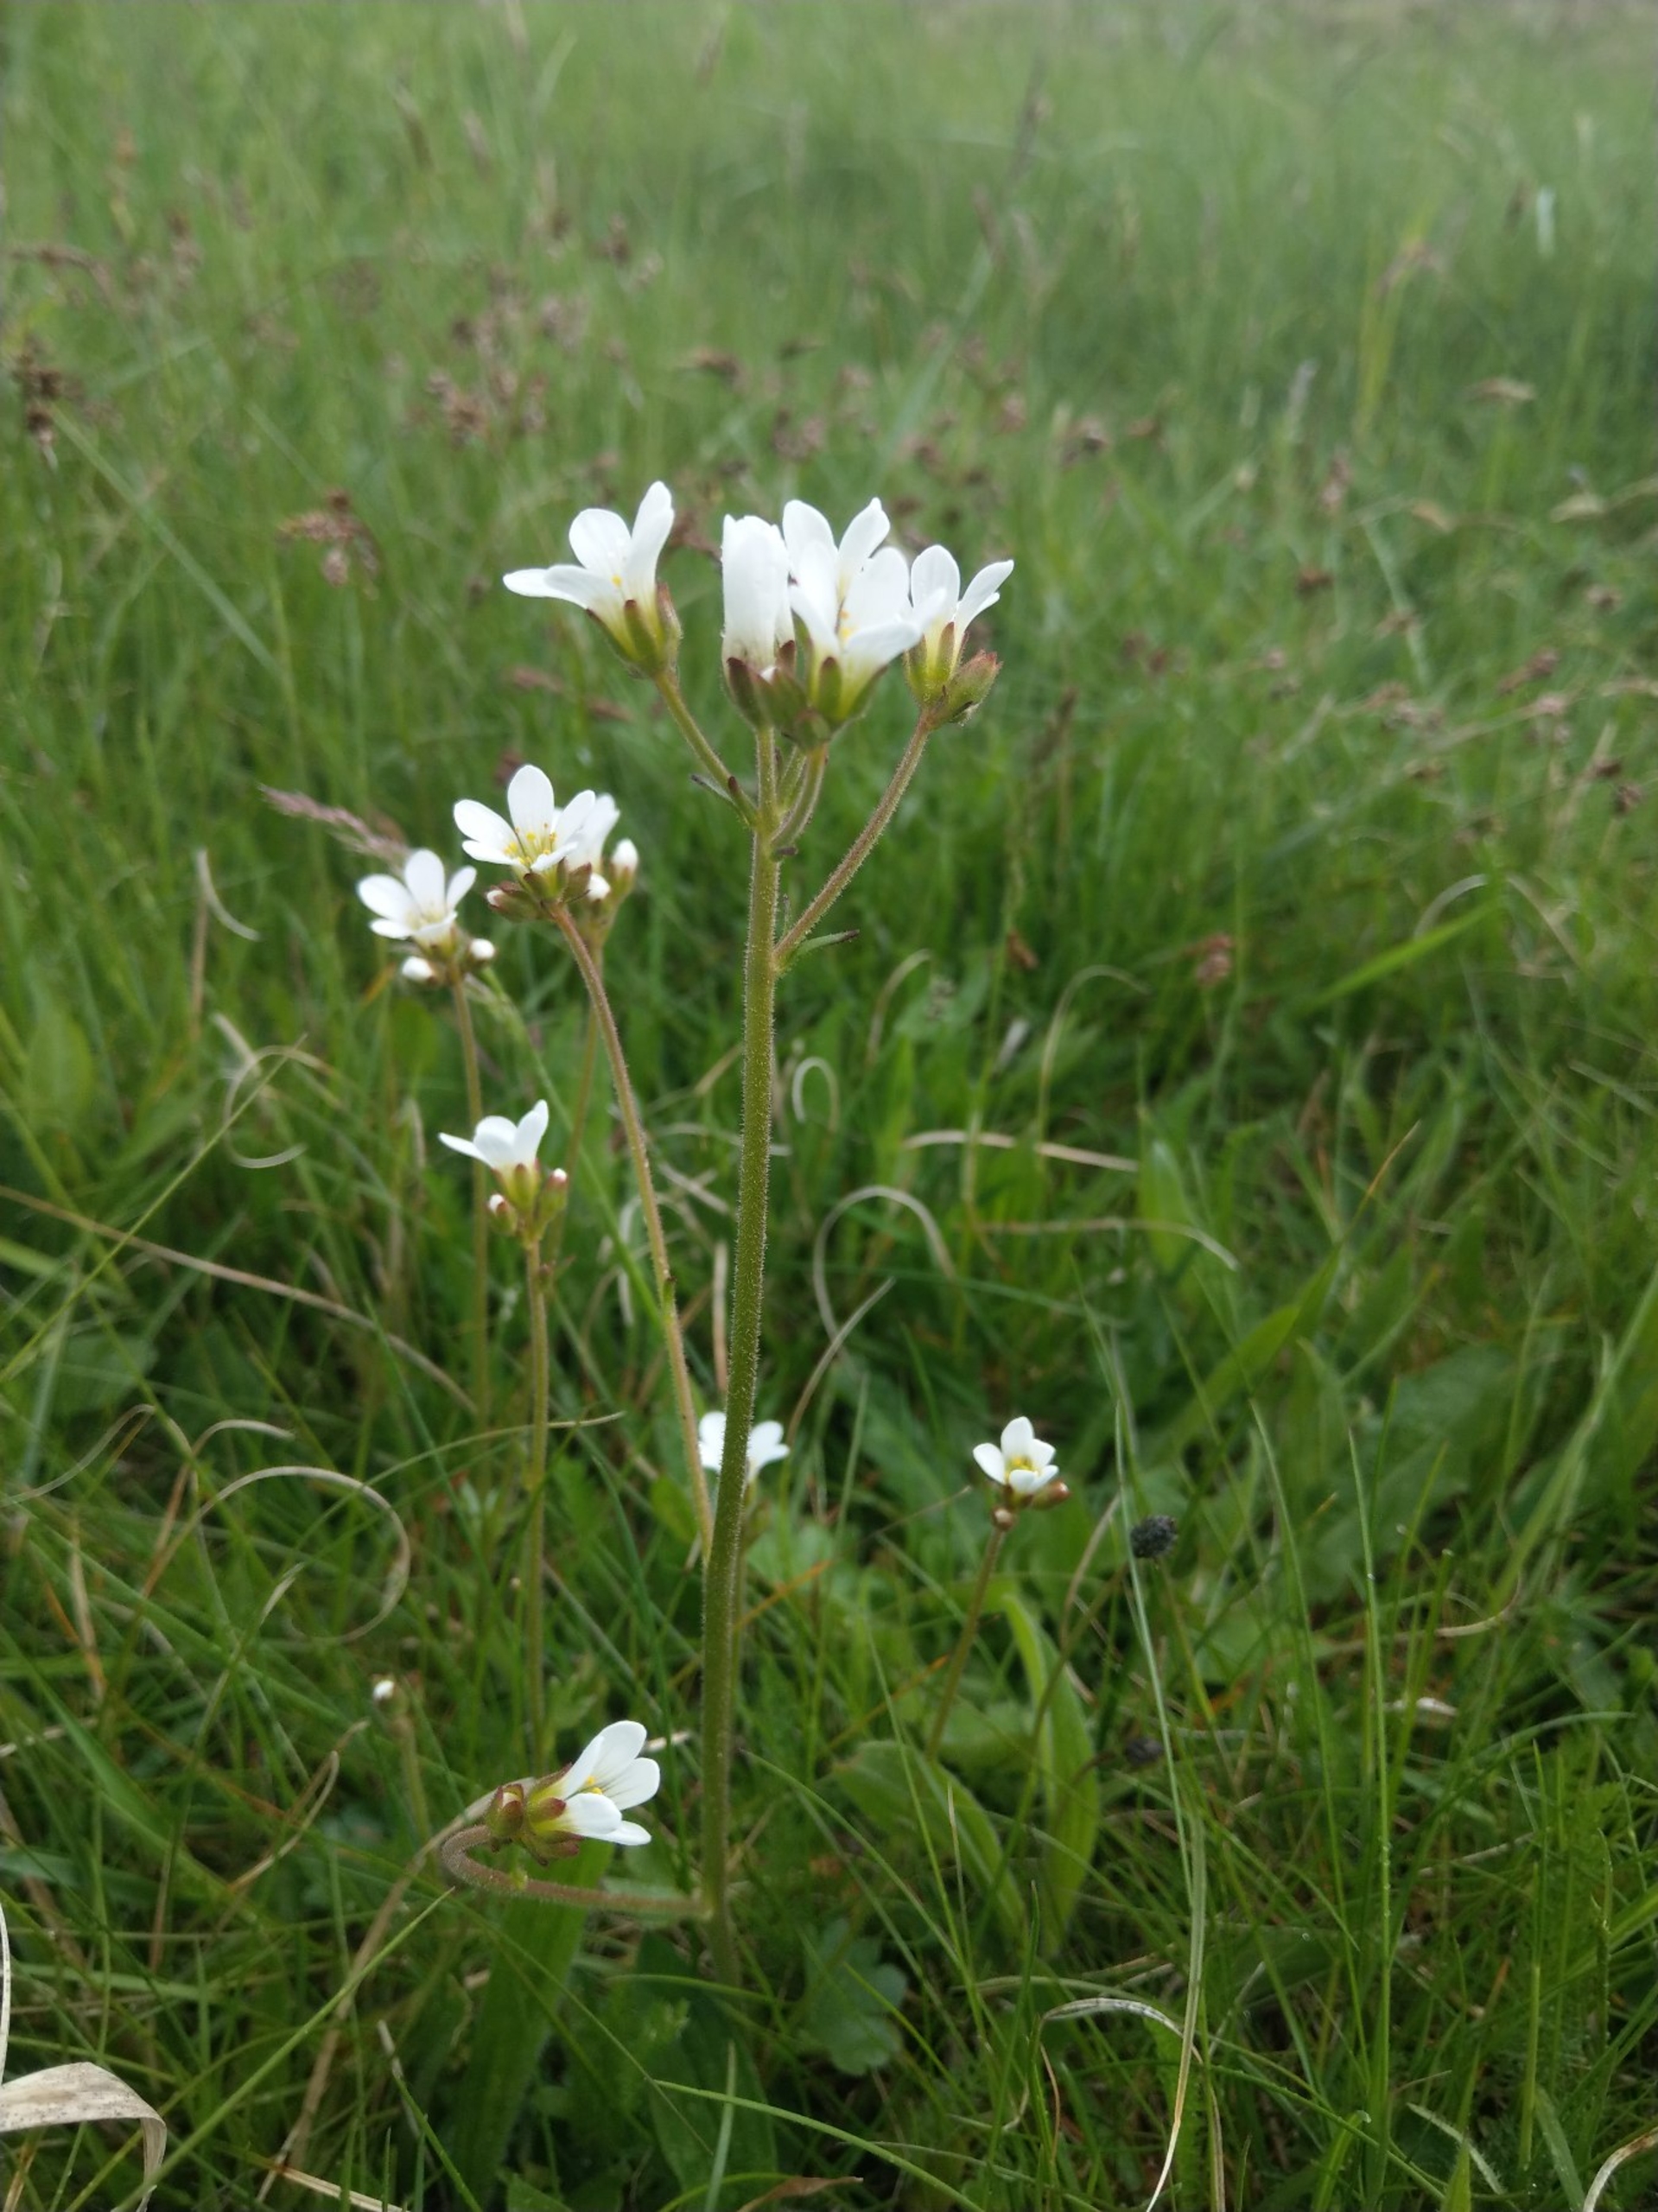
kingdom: Plantae
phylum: Tracheophyta
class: Magnoliopsida
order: Saxifragales
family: Saxifragaceae
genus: Saxifraga
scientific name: Saxifraga granulata
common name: Kornet stenbræk
